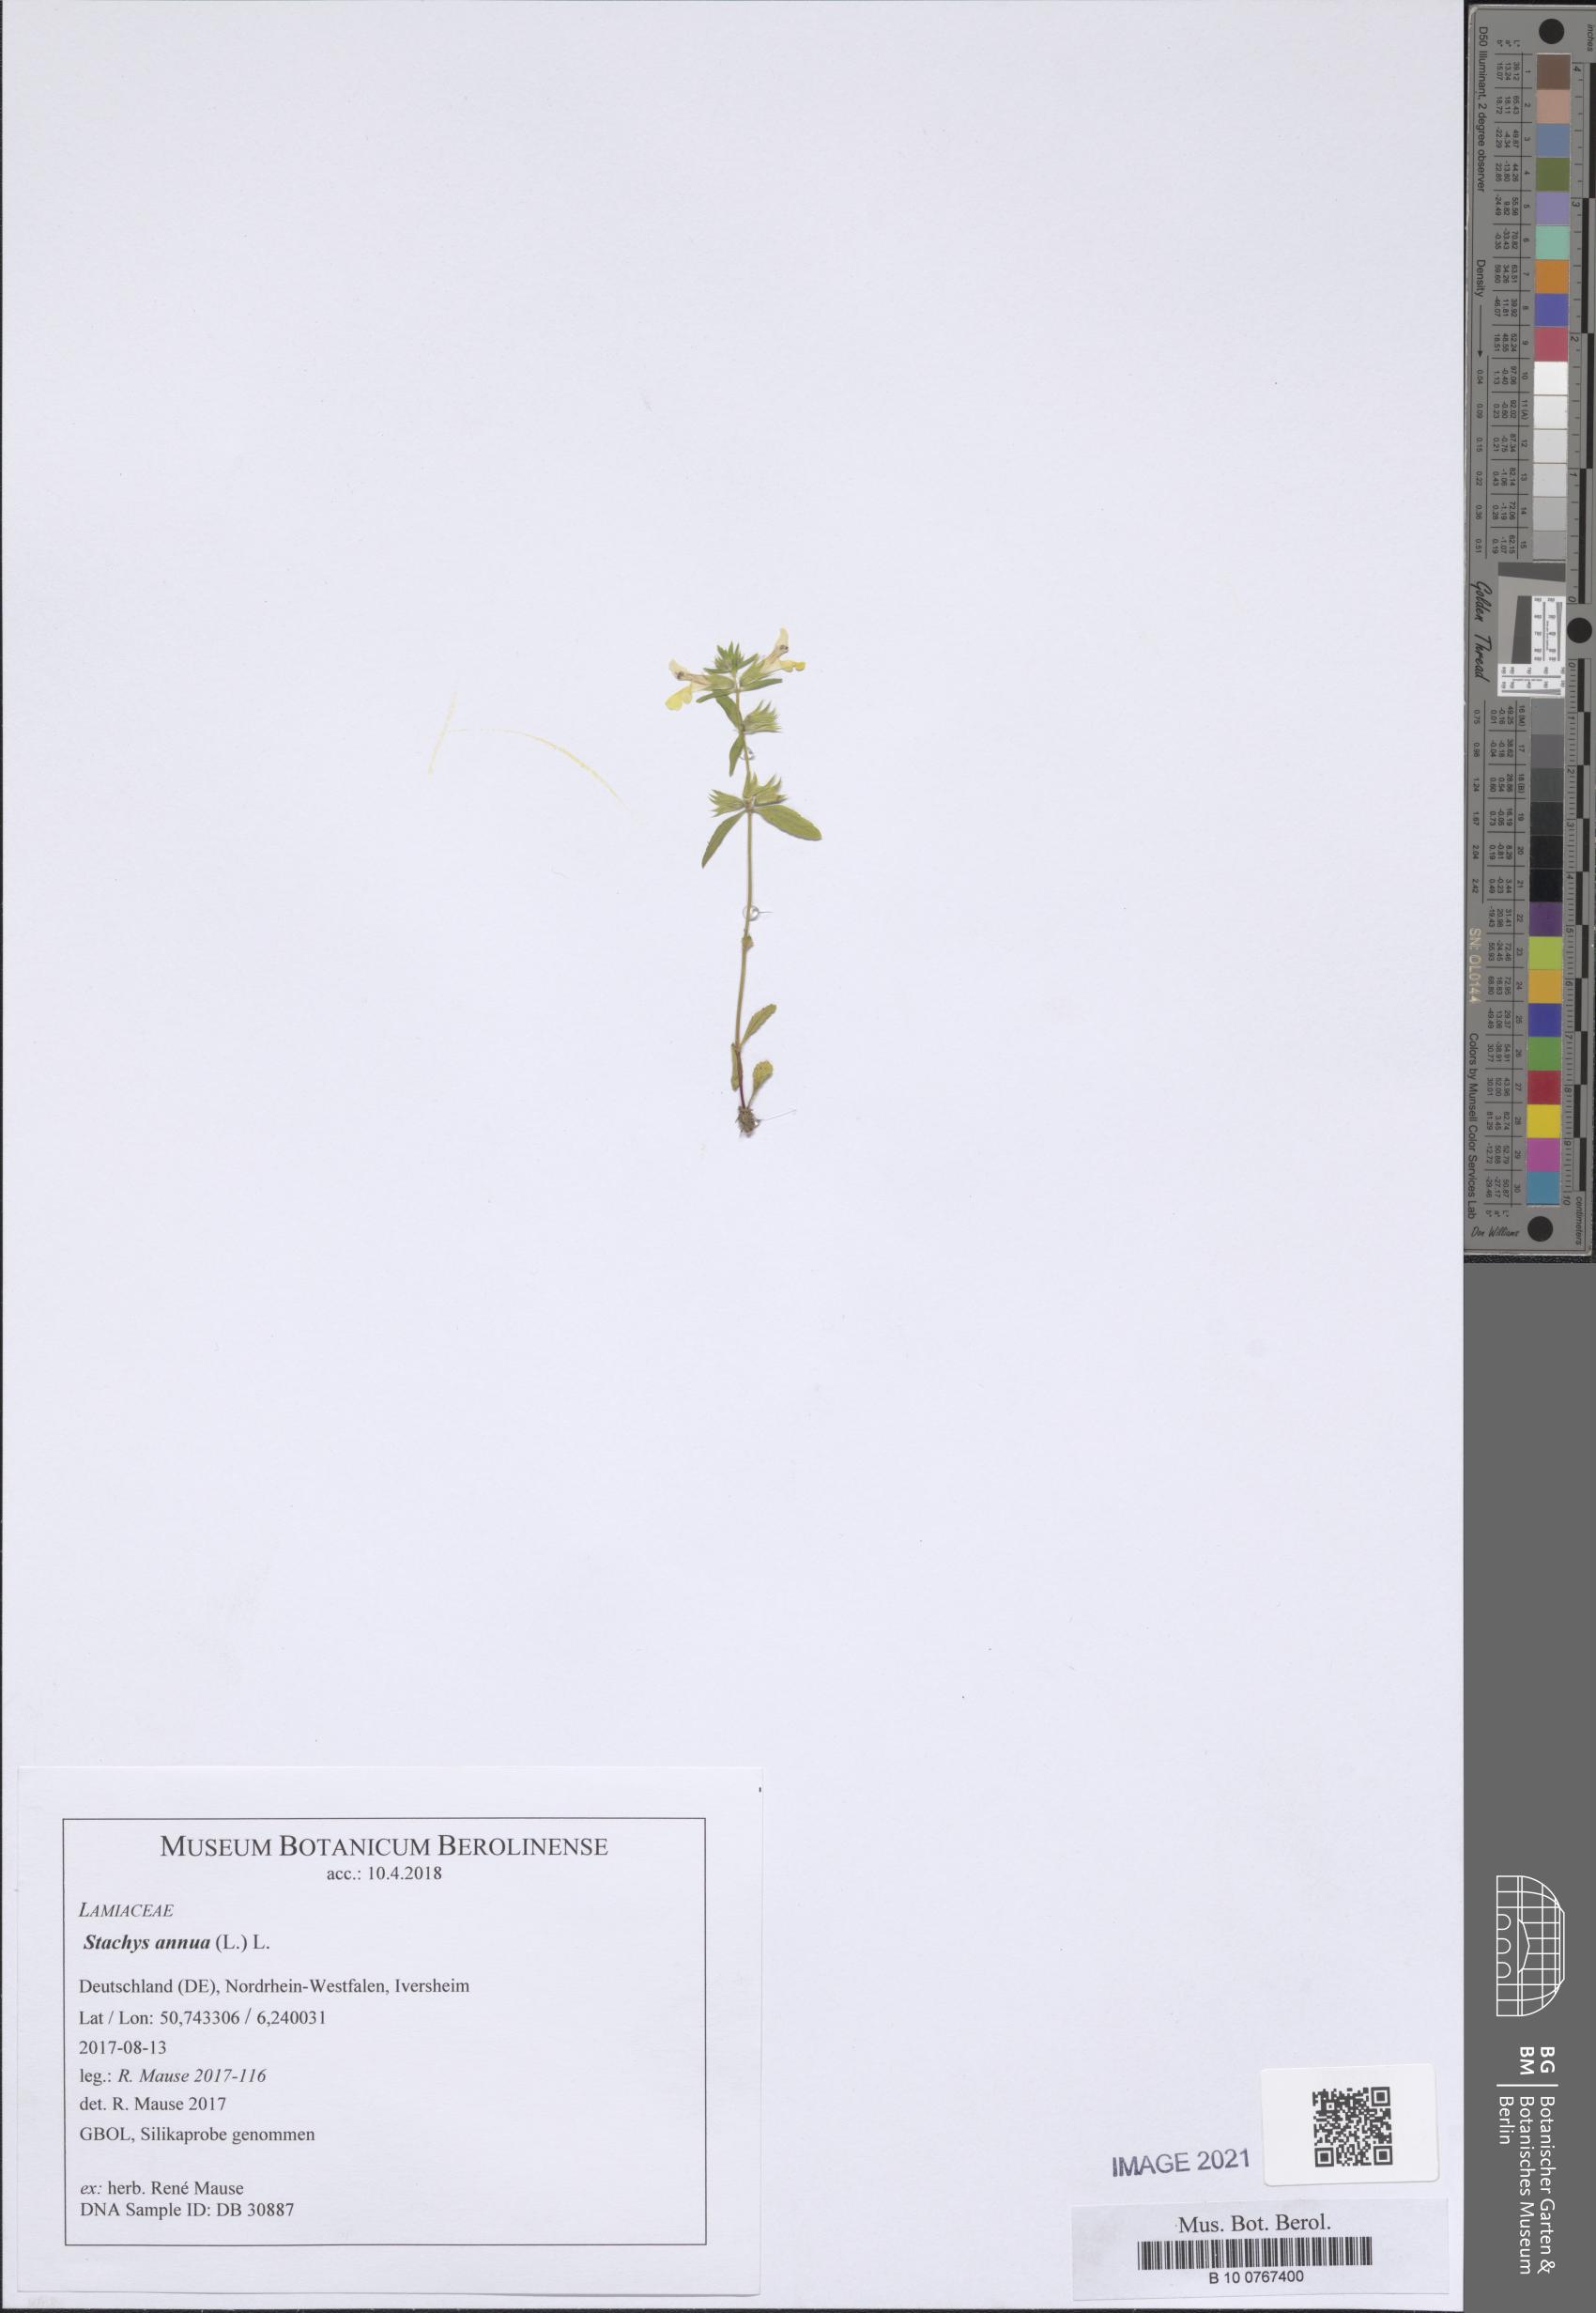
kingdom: Plantae
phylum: Tracheophyta
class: Magnoliopsida
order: Lamiales
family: Lamiaceae
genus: Stachys
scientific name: Stachys annua
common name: Annual yellow-woundwort
